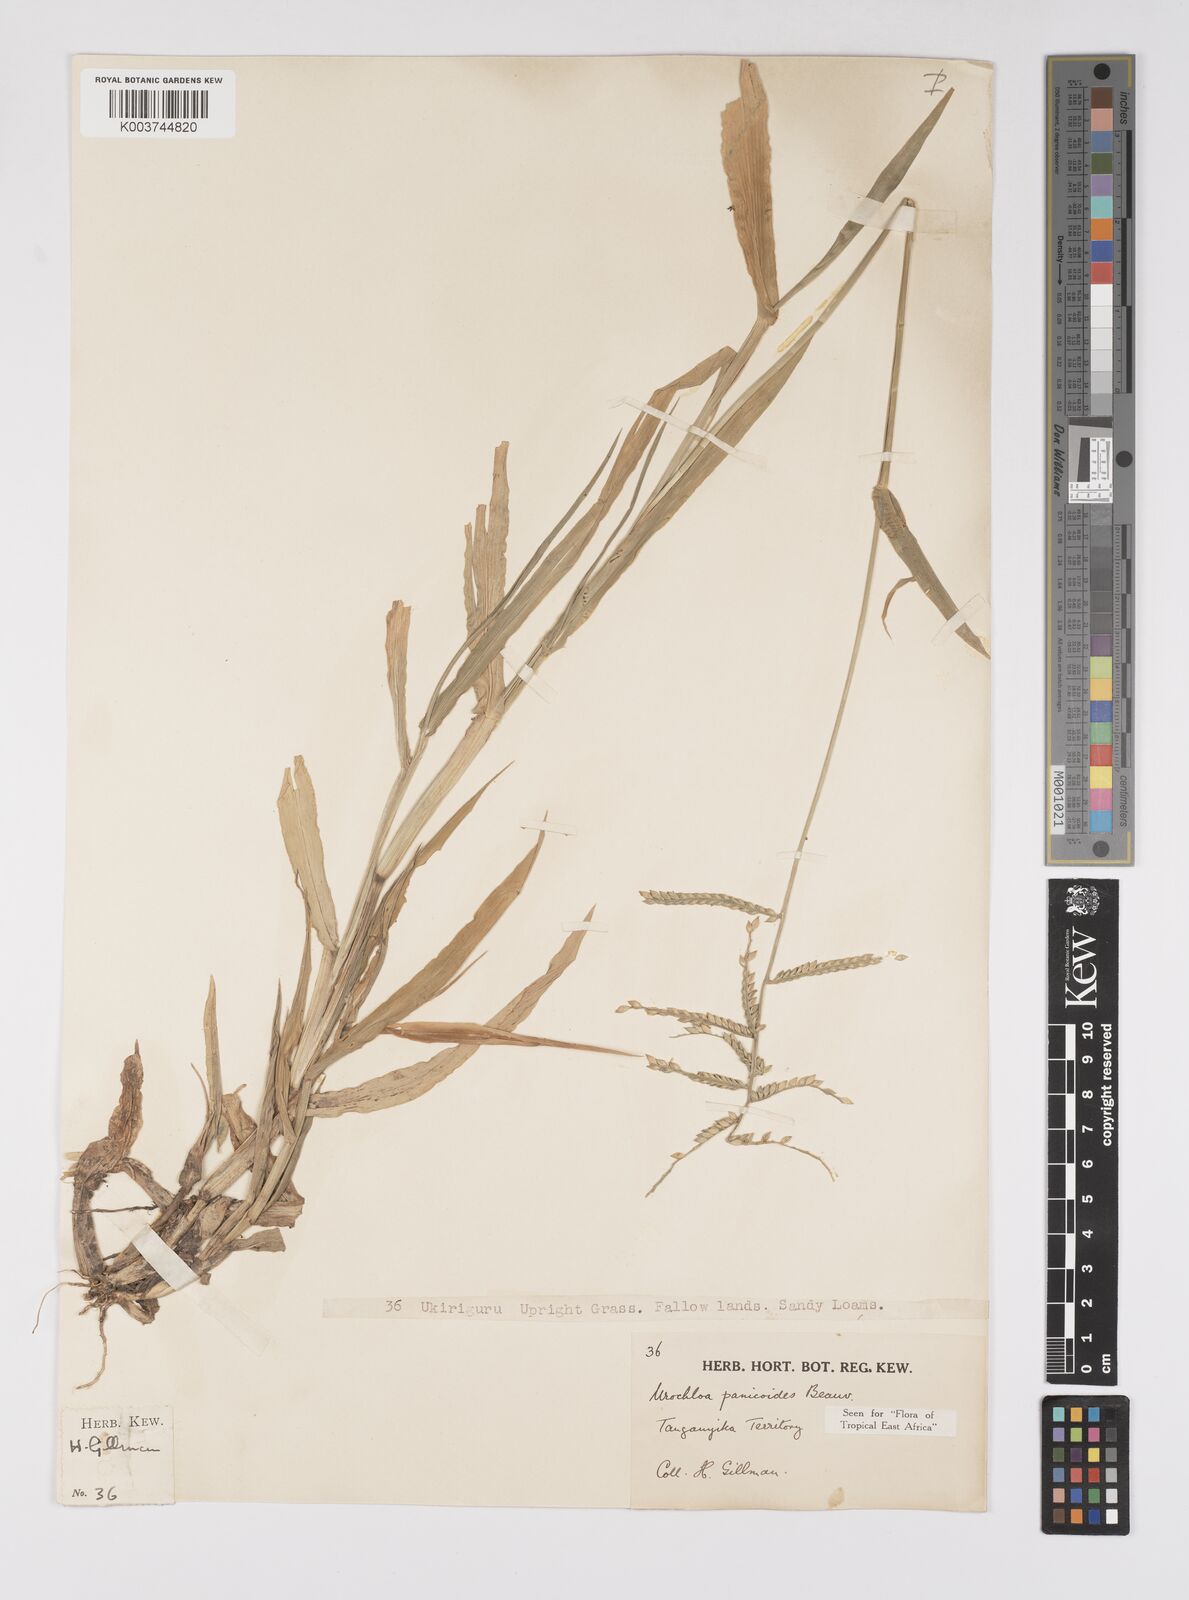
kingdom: Plantae
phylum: Tracheophyta
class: Liliopsida
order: Poales
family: Poaceae
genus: Urochloa
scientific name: Urochloa panicoides
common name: Sharp-flowered signal-grass
